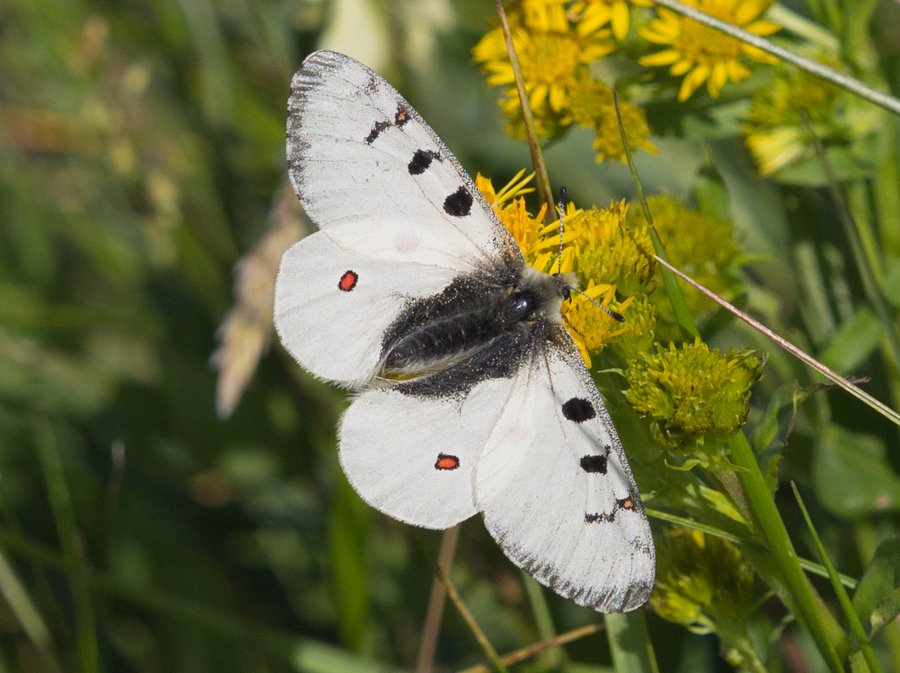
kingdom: Animalia
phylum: Arthropoda
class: Insecta
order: Lepidoptera
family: Papilionidae
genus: Parnassius
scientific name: Parnassius smintheus
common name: Rocky Mountain Parnassian
